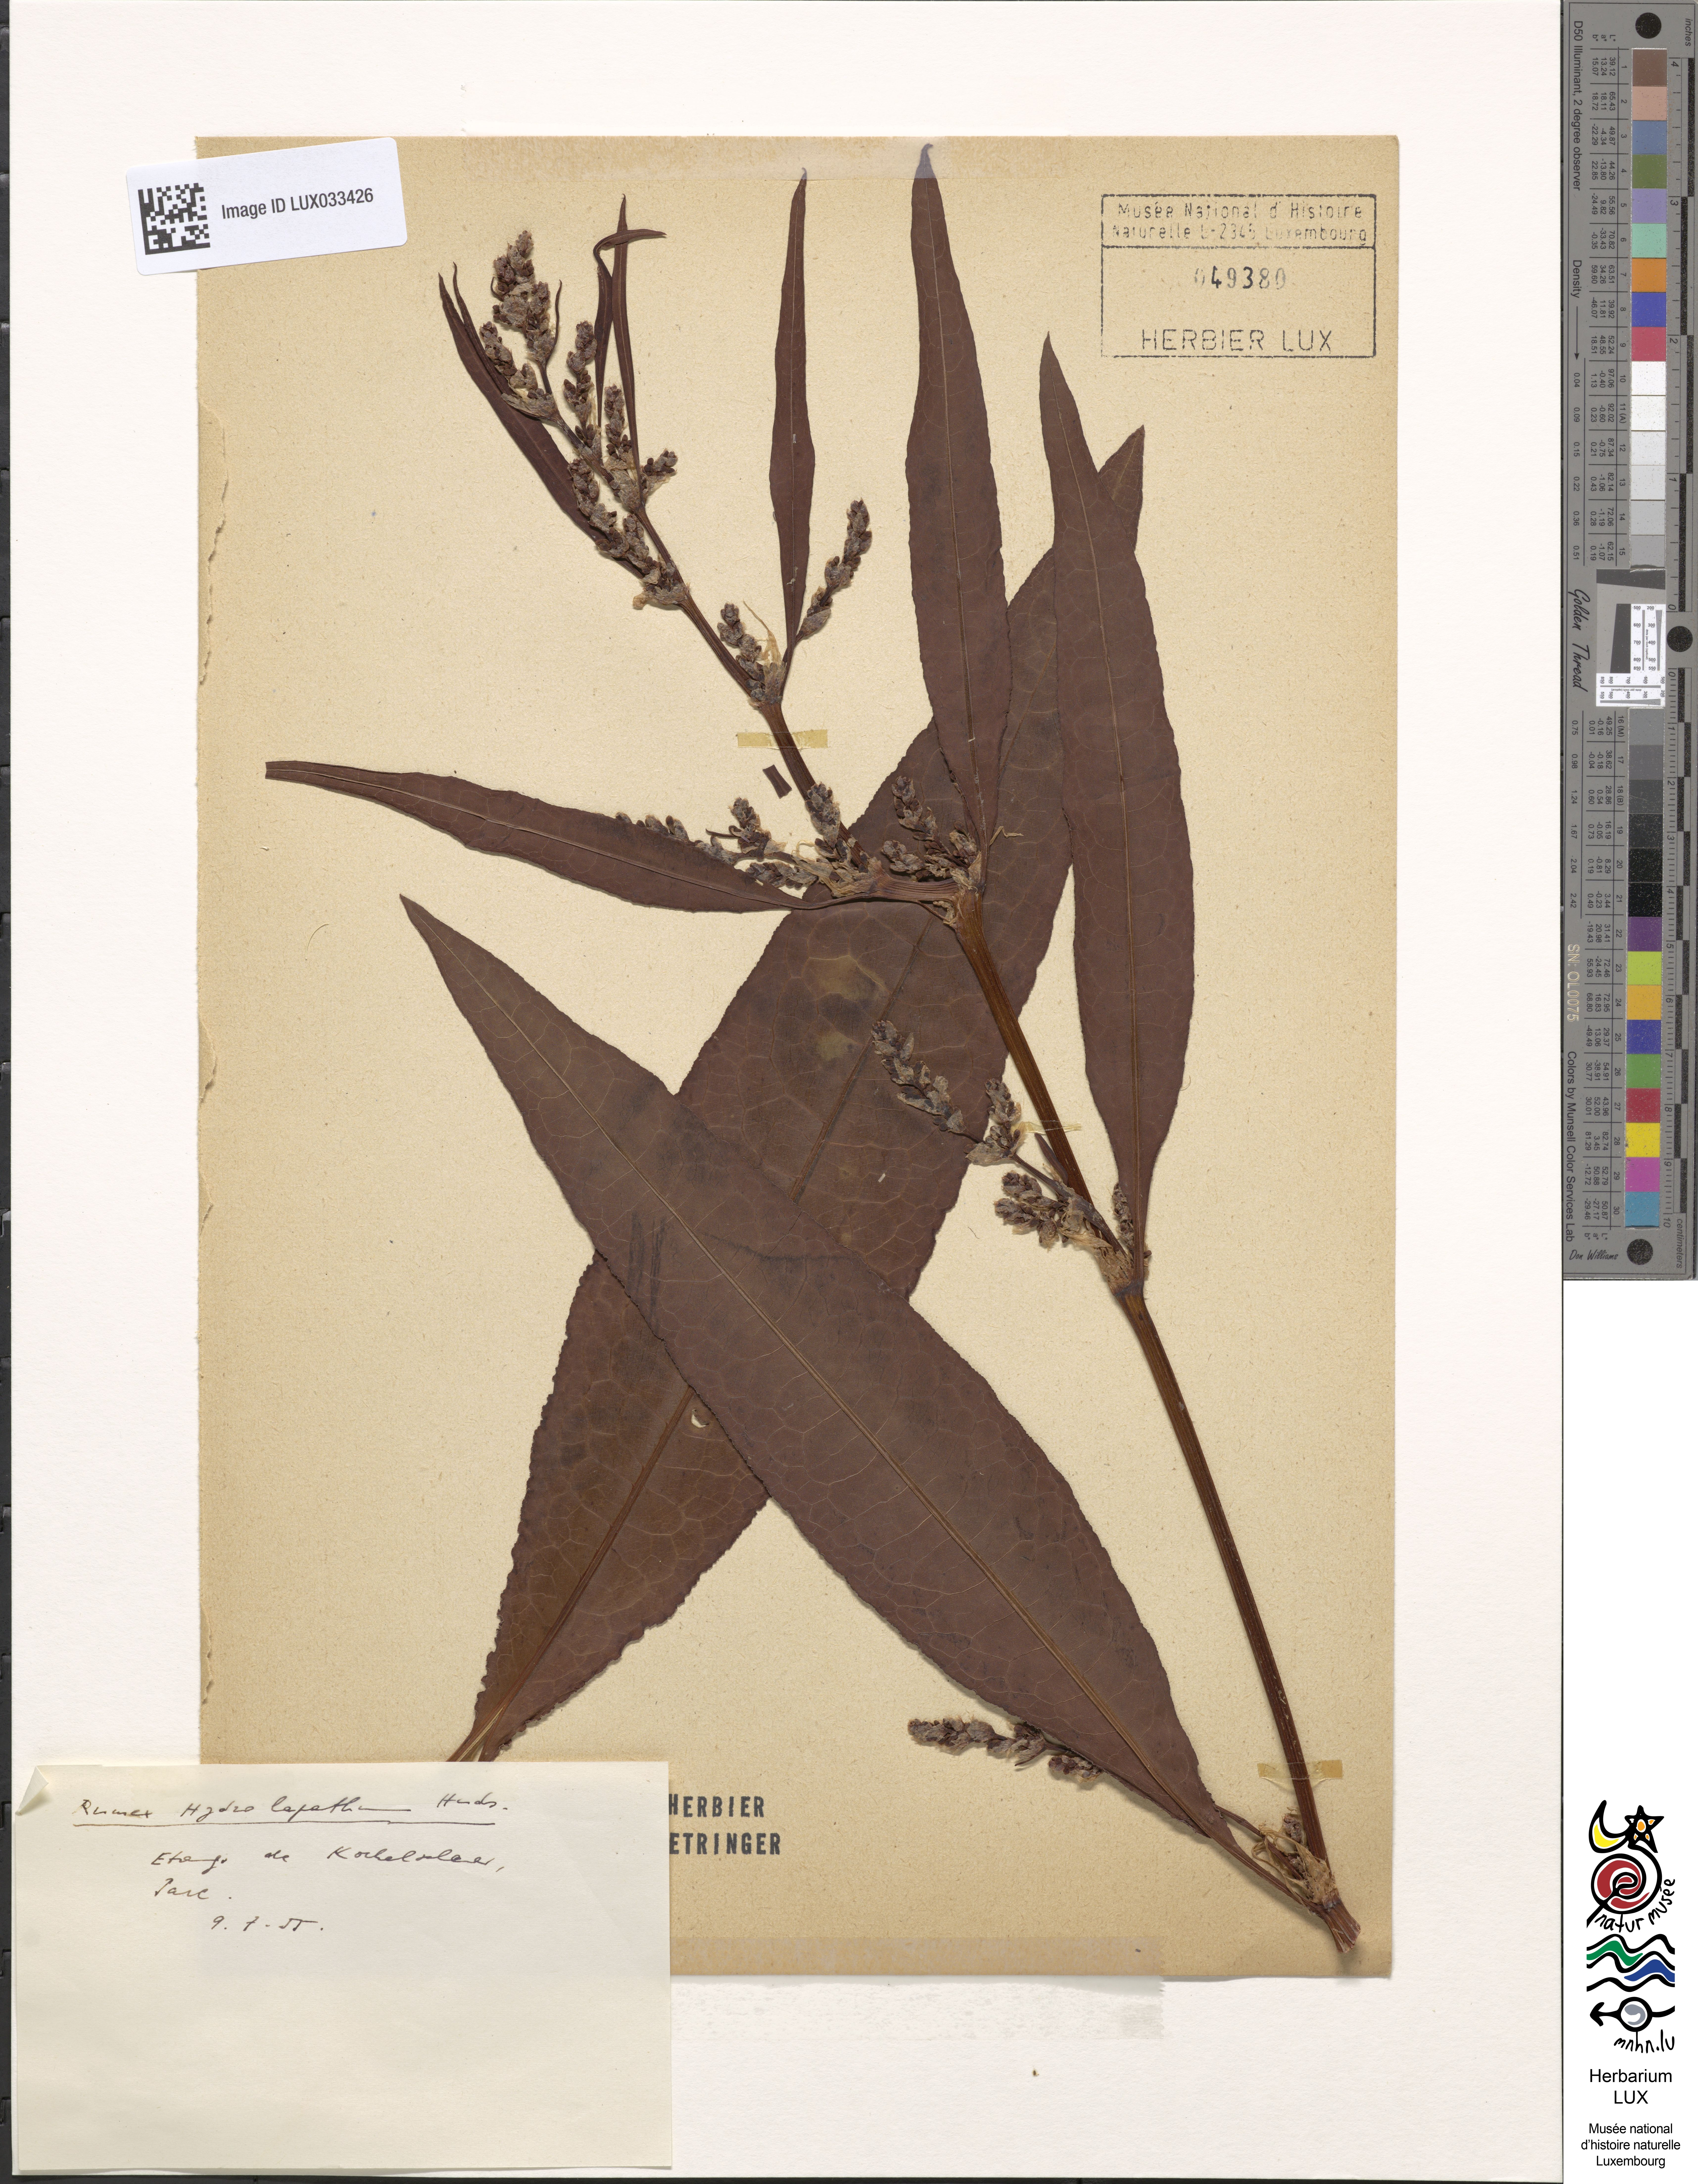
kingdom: Plantae
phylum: Tracheophyta
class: Magnoliopsida
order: Caryophyllales
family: Polygonaceae
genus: Rumex
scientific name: Rumex hydrolapathum
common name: Water dock
